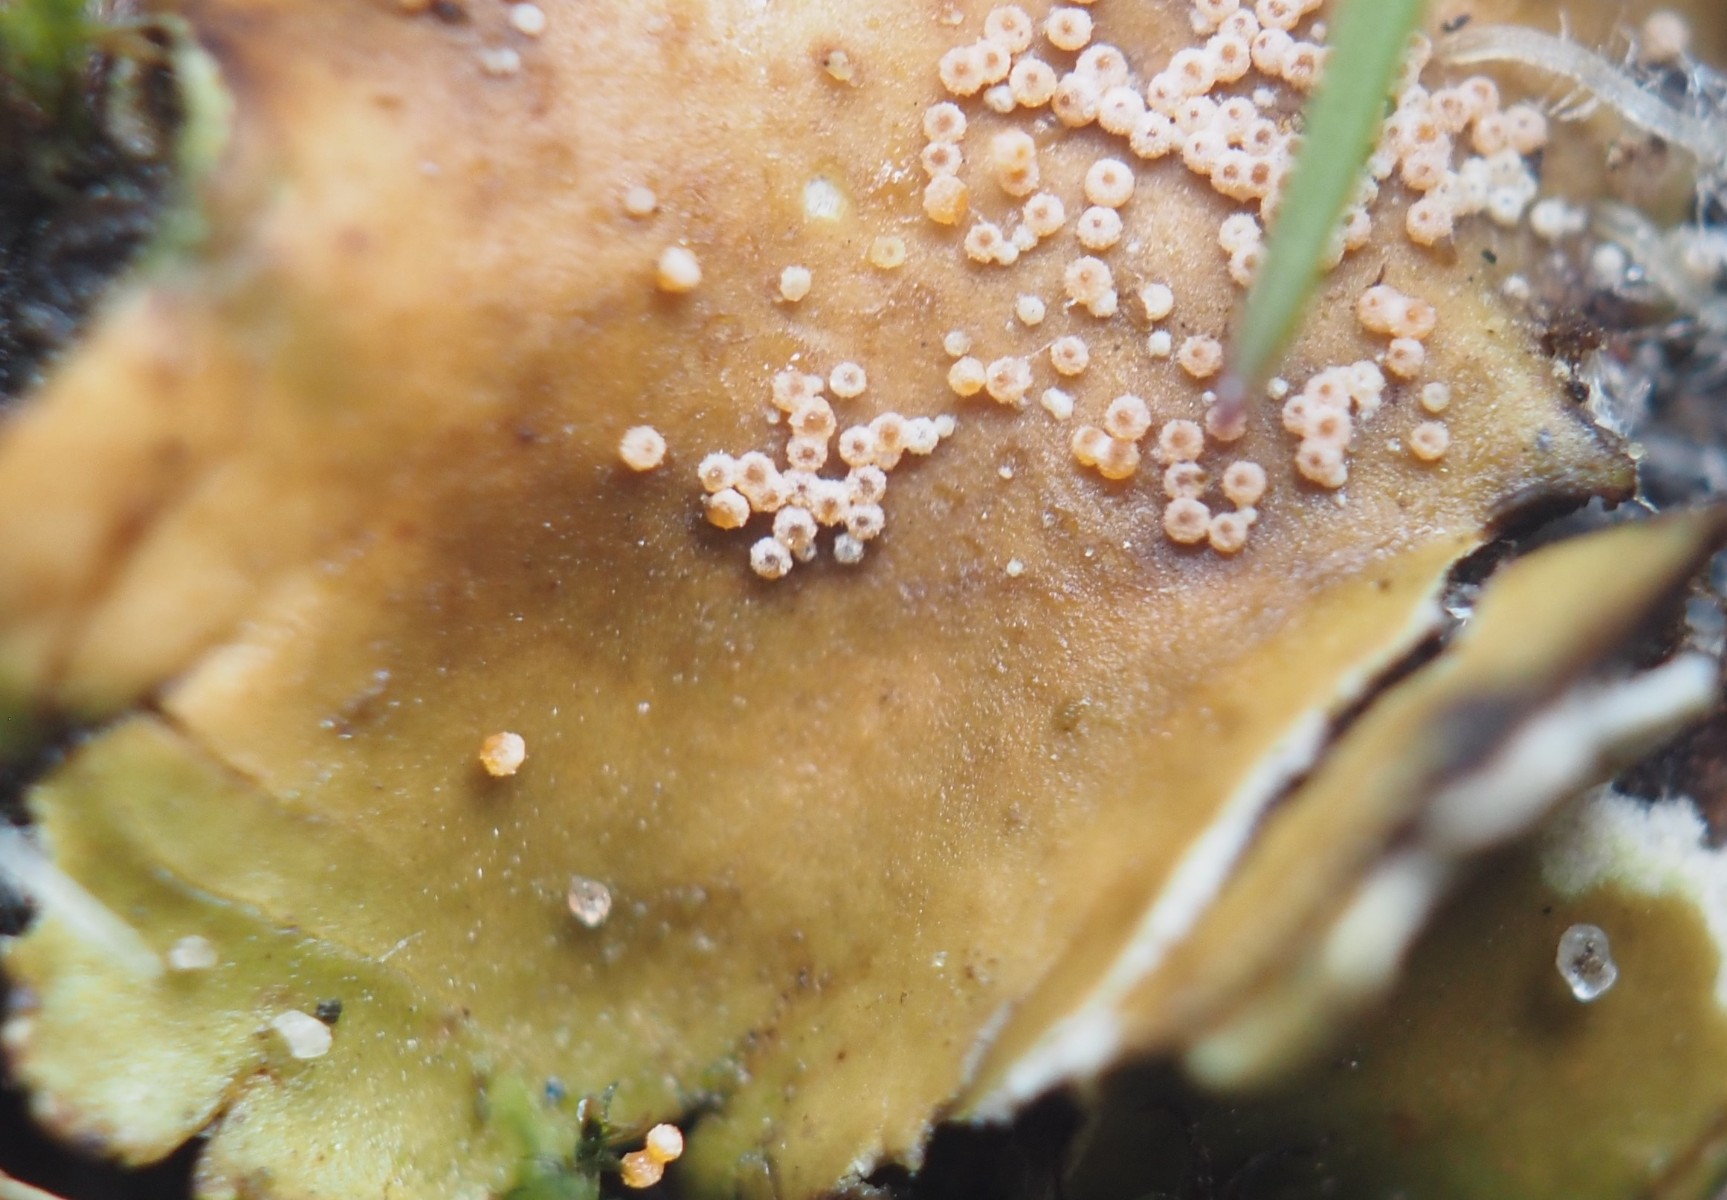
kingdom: Fungi
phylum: Ascomycota
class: Sordariomycetes
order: Hypocreales
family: Bionectriaceae
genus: Nectriopsis
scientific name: Nectriopsis lecanodes
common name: skjoldlav-gyldenkerne
